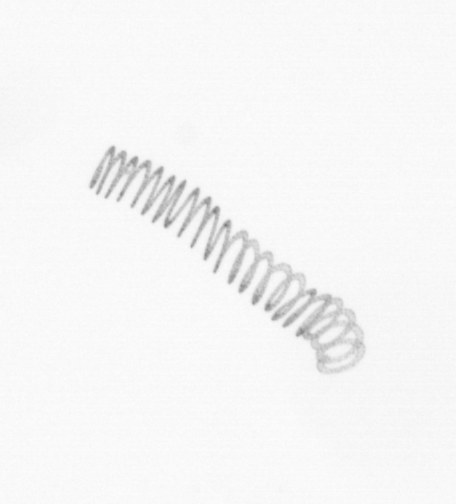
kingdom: Chromista
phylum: Ochrophyta
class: Bacillariophyceae
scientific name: Bacillariophyceae
